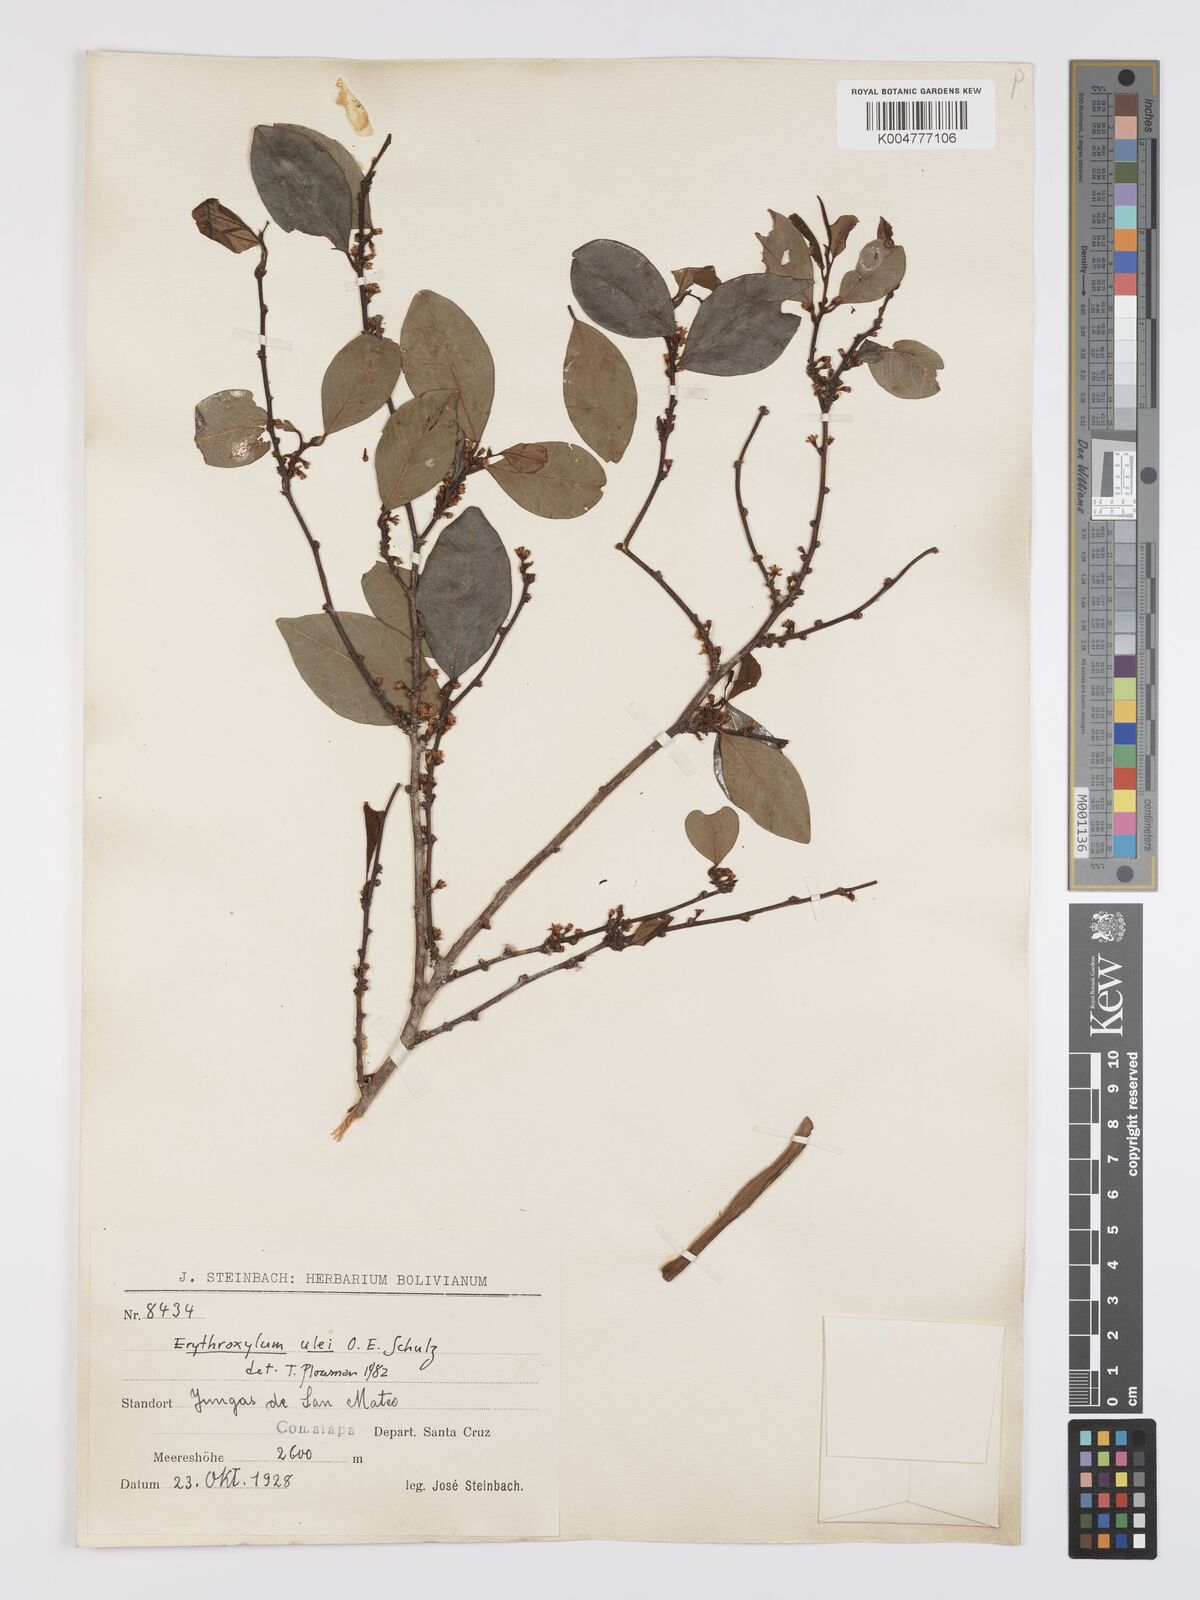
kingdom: Plantae
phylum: Tracheophyta
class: Magnoliopsida
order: Malpighiales
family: Erythroxylaceae
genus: Erythroxylum
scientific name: Erythroxylum ulei
